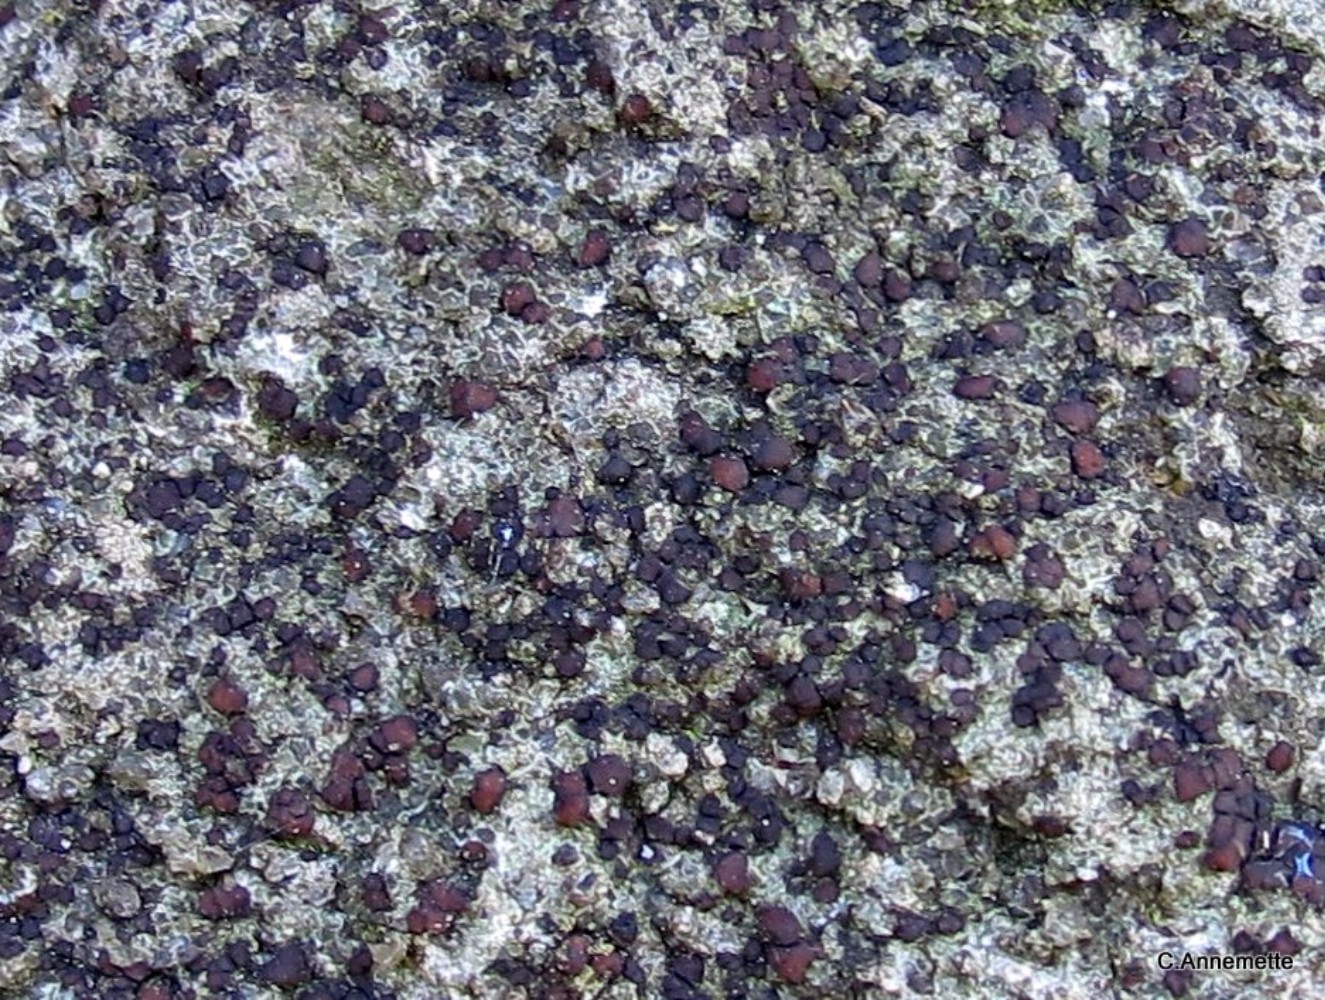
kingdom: Fungi
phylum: Ascomycota
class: Lecanoromycetes
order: Baeomycetales
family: Trapeliaceae
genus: Trapelia
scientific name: Trapelia coarctata
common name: hvidrandet brunskivelav
